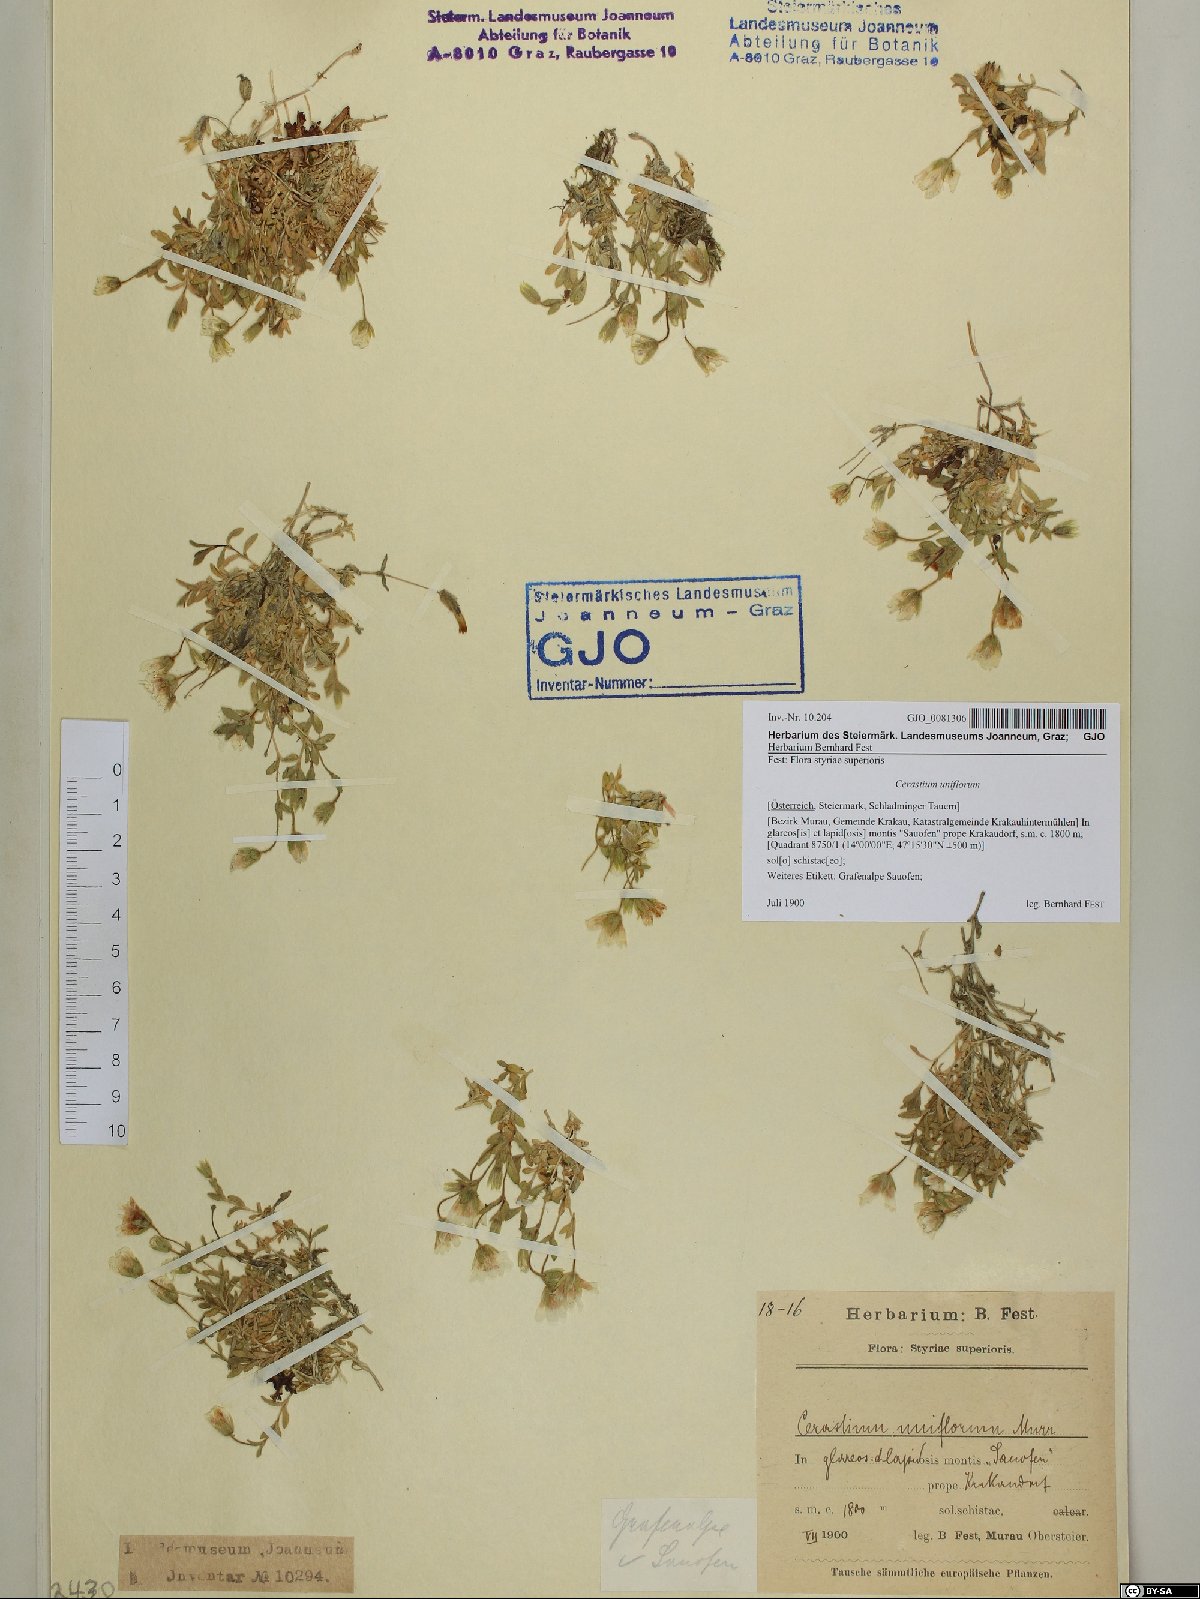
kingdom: Plantae
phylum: Tracheophyta
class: Magnoliopsida
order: Caryophyllales
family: Caryophyllaceae
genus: Cerastium
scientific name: Cerastium uniflorum
